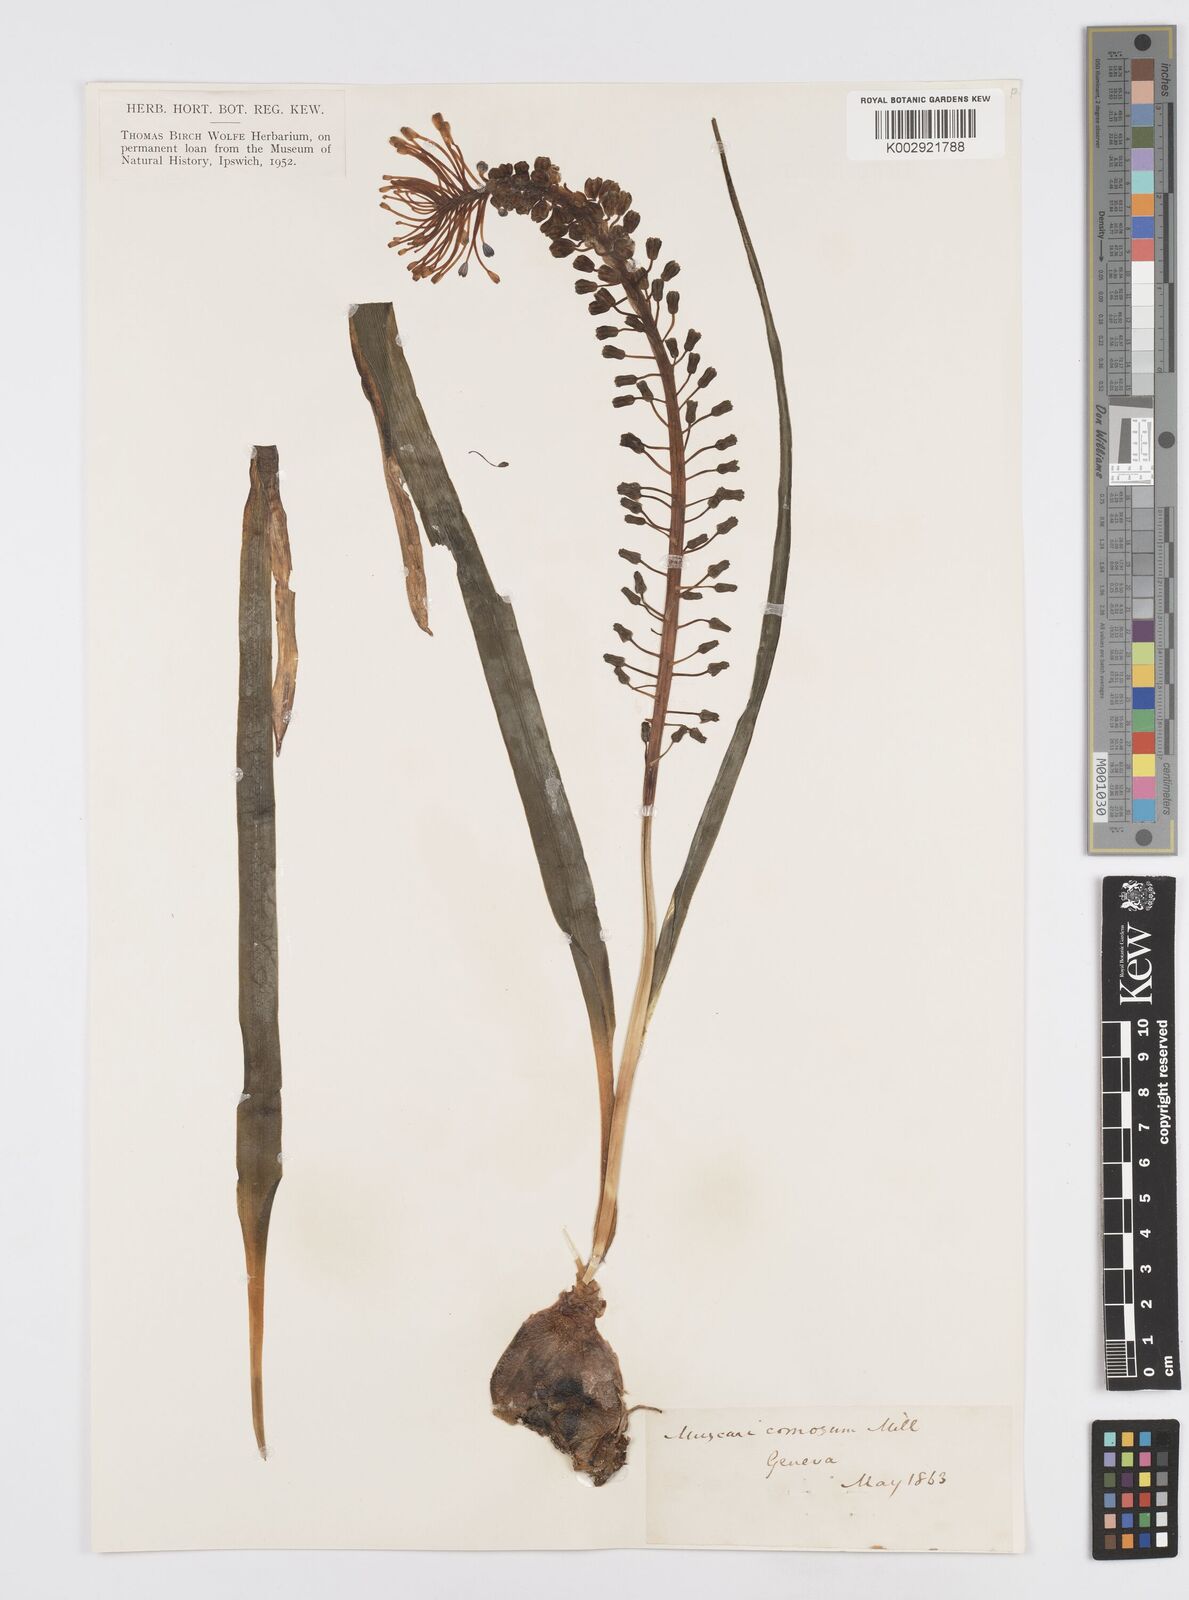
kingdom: Plantae
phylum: Tracheophyta
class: Liliopsida
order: Asparagales
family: Asparagaceae
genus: Muscari
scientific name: Muscari comosum
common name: Tassel hyacinth
